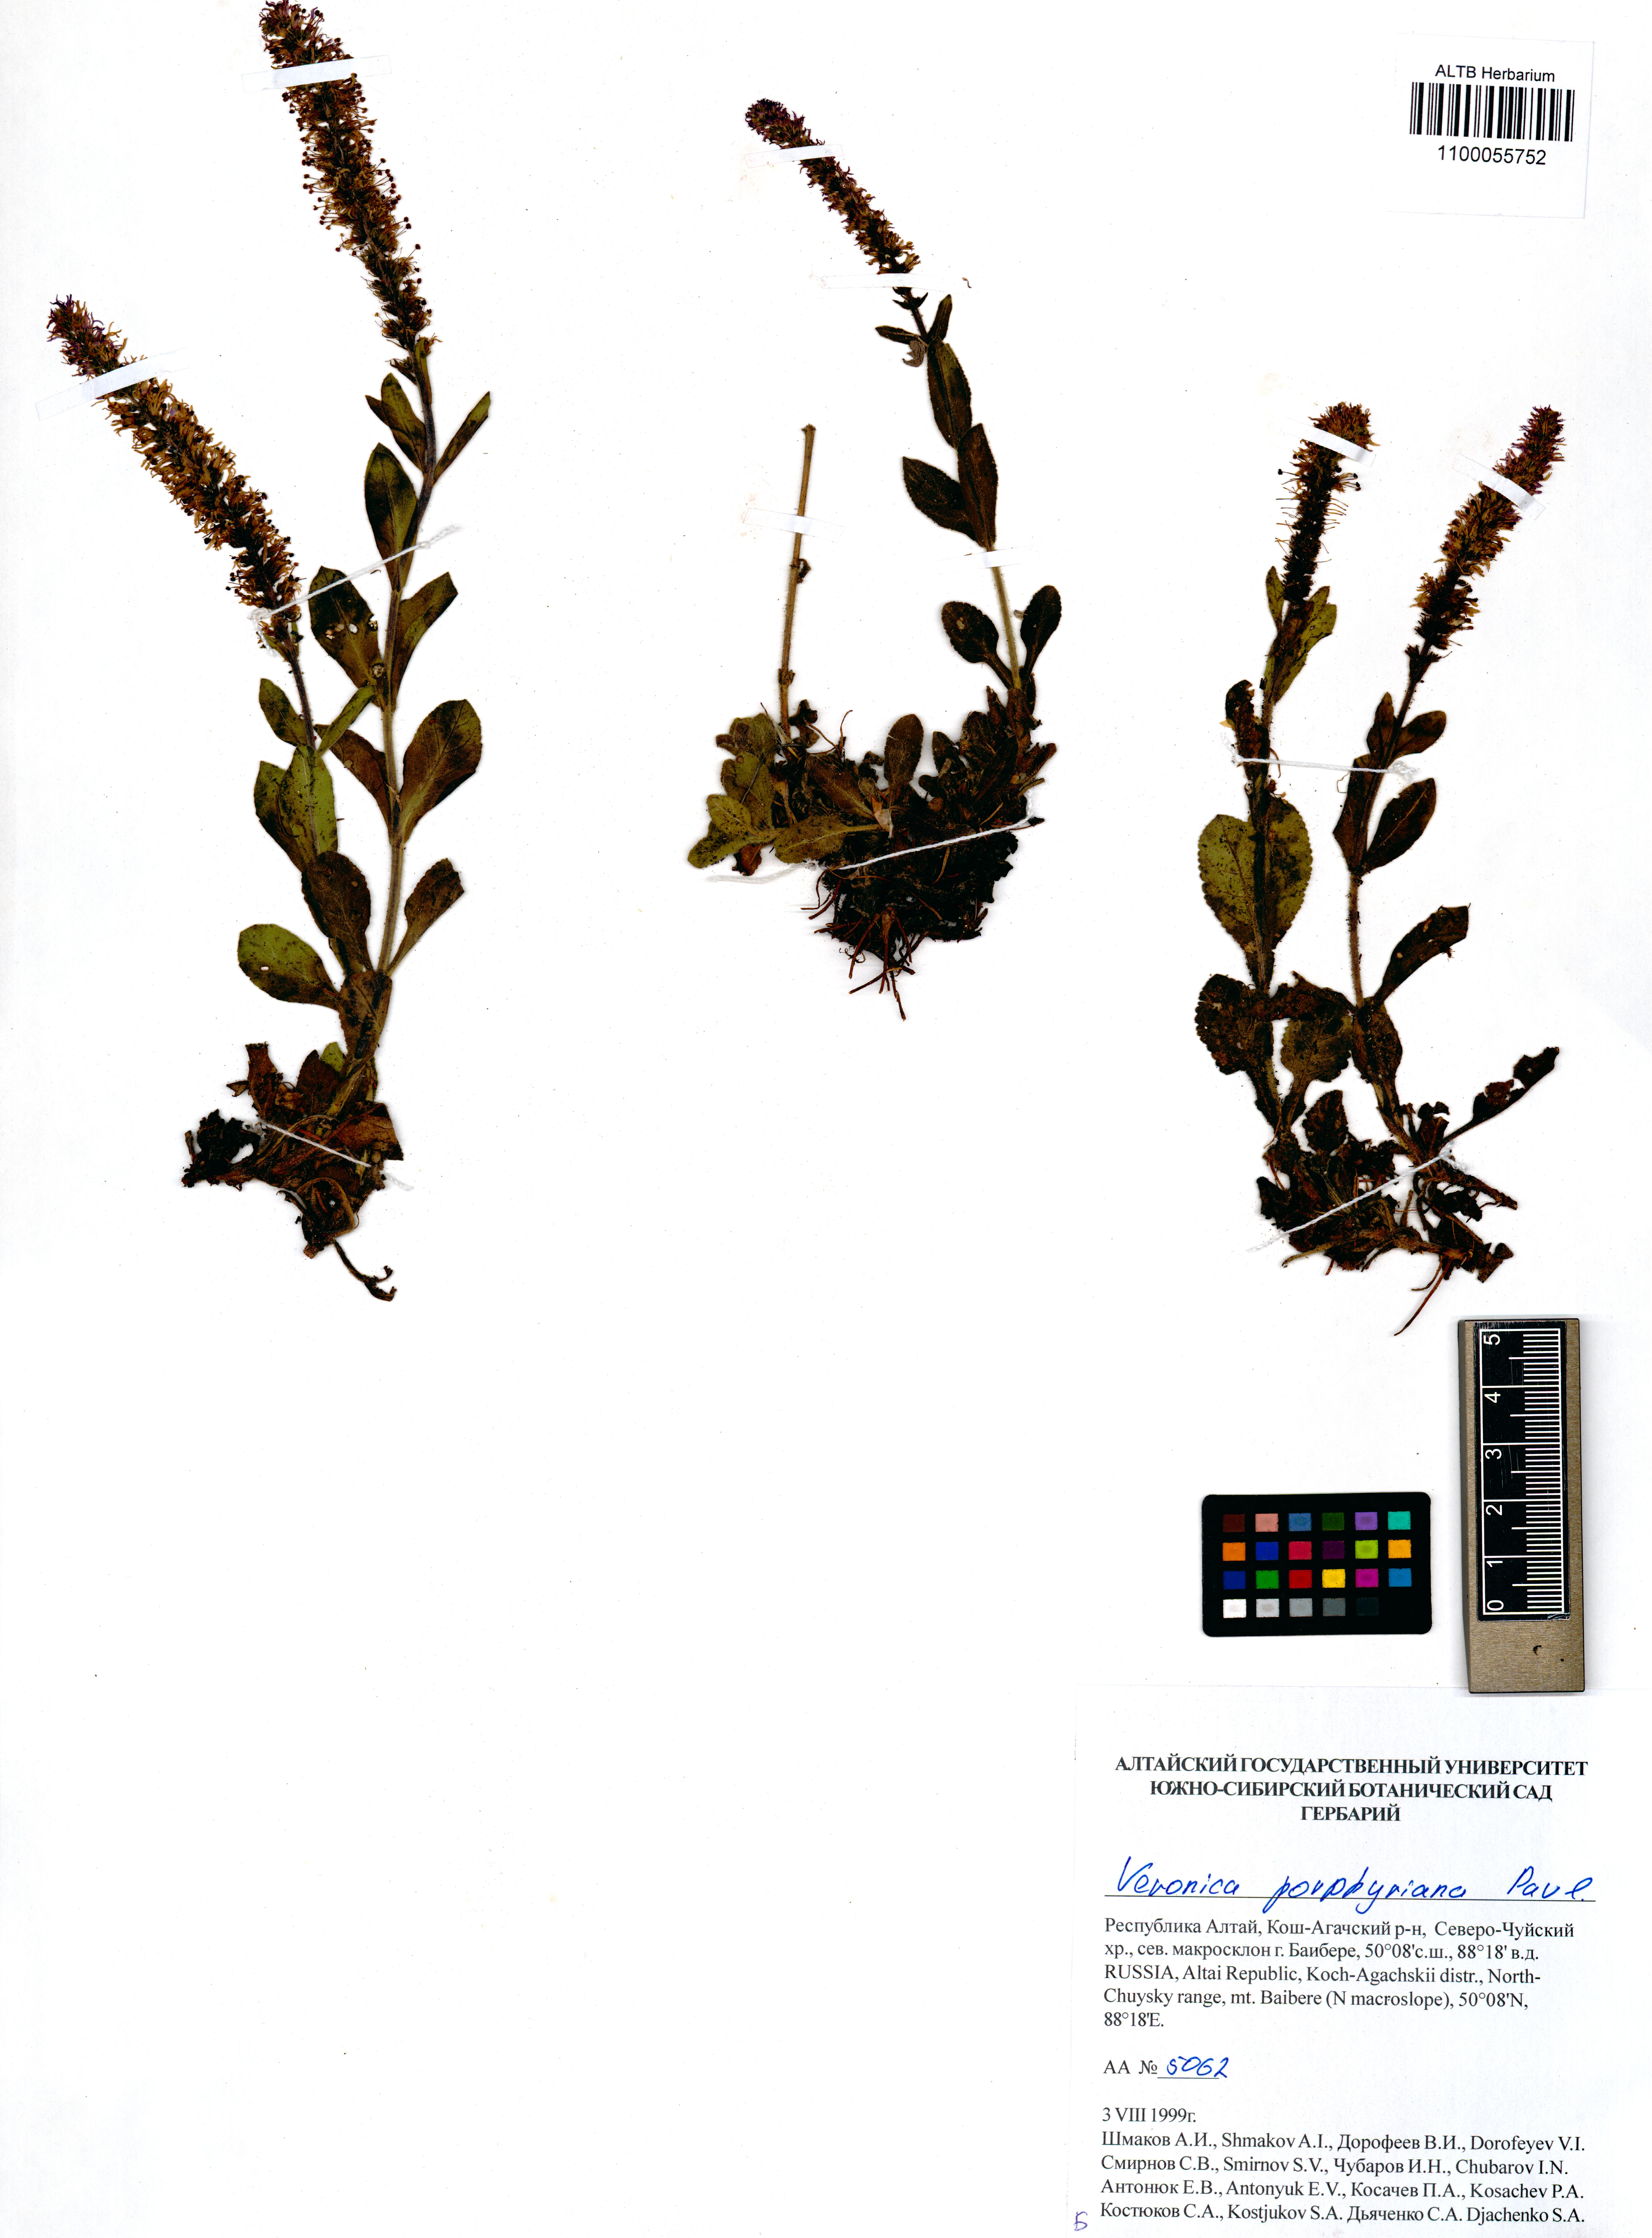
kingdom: Plantae
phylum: Tracheophyta
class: Magnoliopsida
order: Lamiales
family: Plantaginaceae
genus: Veronica
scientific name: Veronica porphyriana
